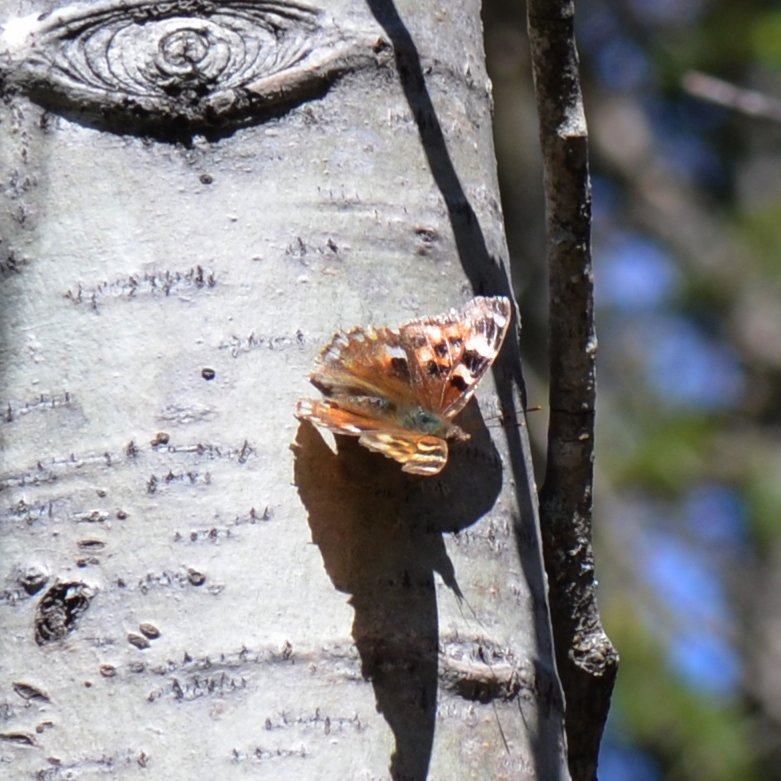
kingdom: Animalia
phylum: Arthropoda
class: Insecta
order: Lepidoptera
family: Nymphalidae
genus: Polygonia
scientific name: Polygonia vaualbum
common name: Compton Tortoiseshell
